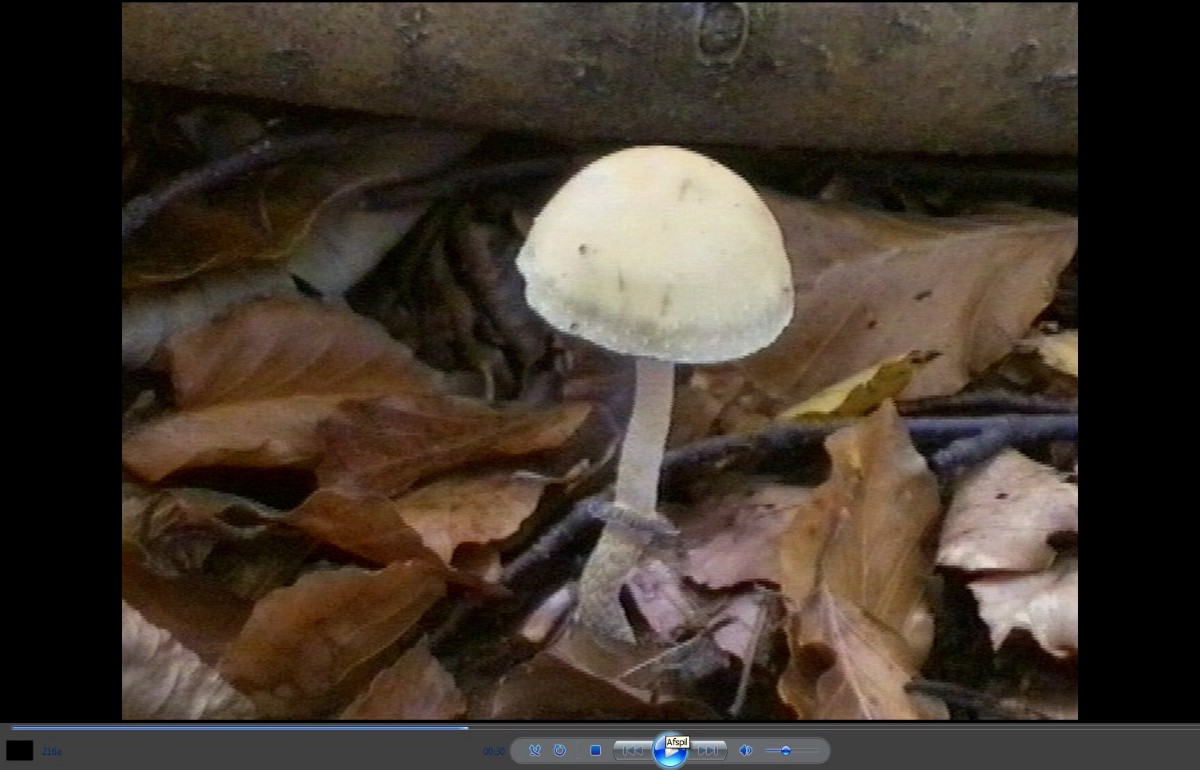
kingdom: Fungi
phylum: Basidiomycota
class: Agaricomycetes
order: Agaricales
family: Strophariaceae
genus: Leratiomyces
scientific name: Leratiomyces squamosus
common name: skællet bredblad
